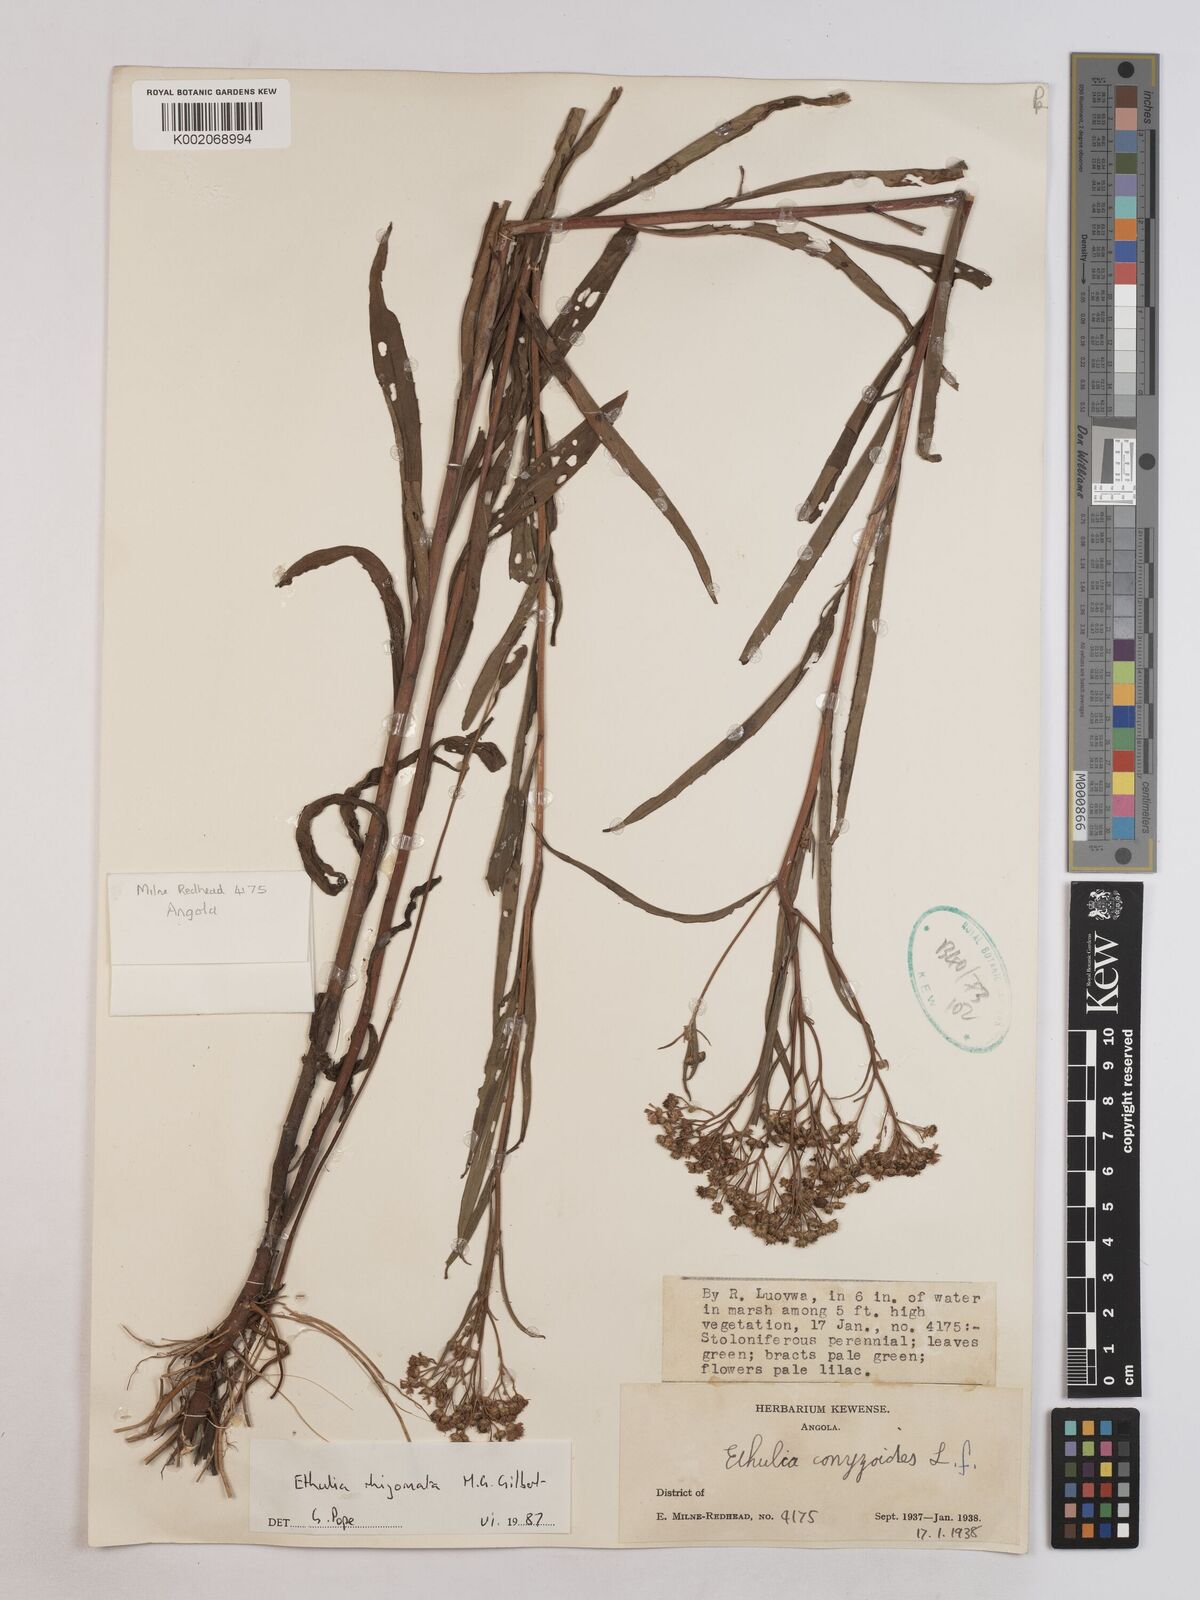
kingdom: Plantae
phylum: Tracheophyta
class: Magnoliopsida
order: Asterales
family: Asteraceae
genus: Ethulia
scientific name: Ethulia rhizomata
